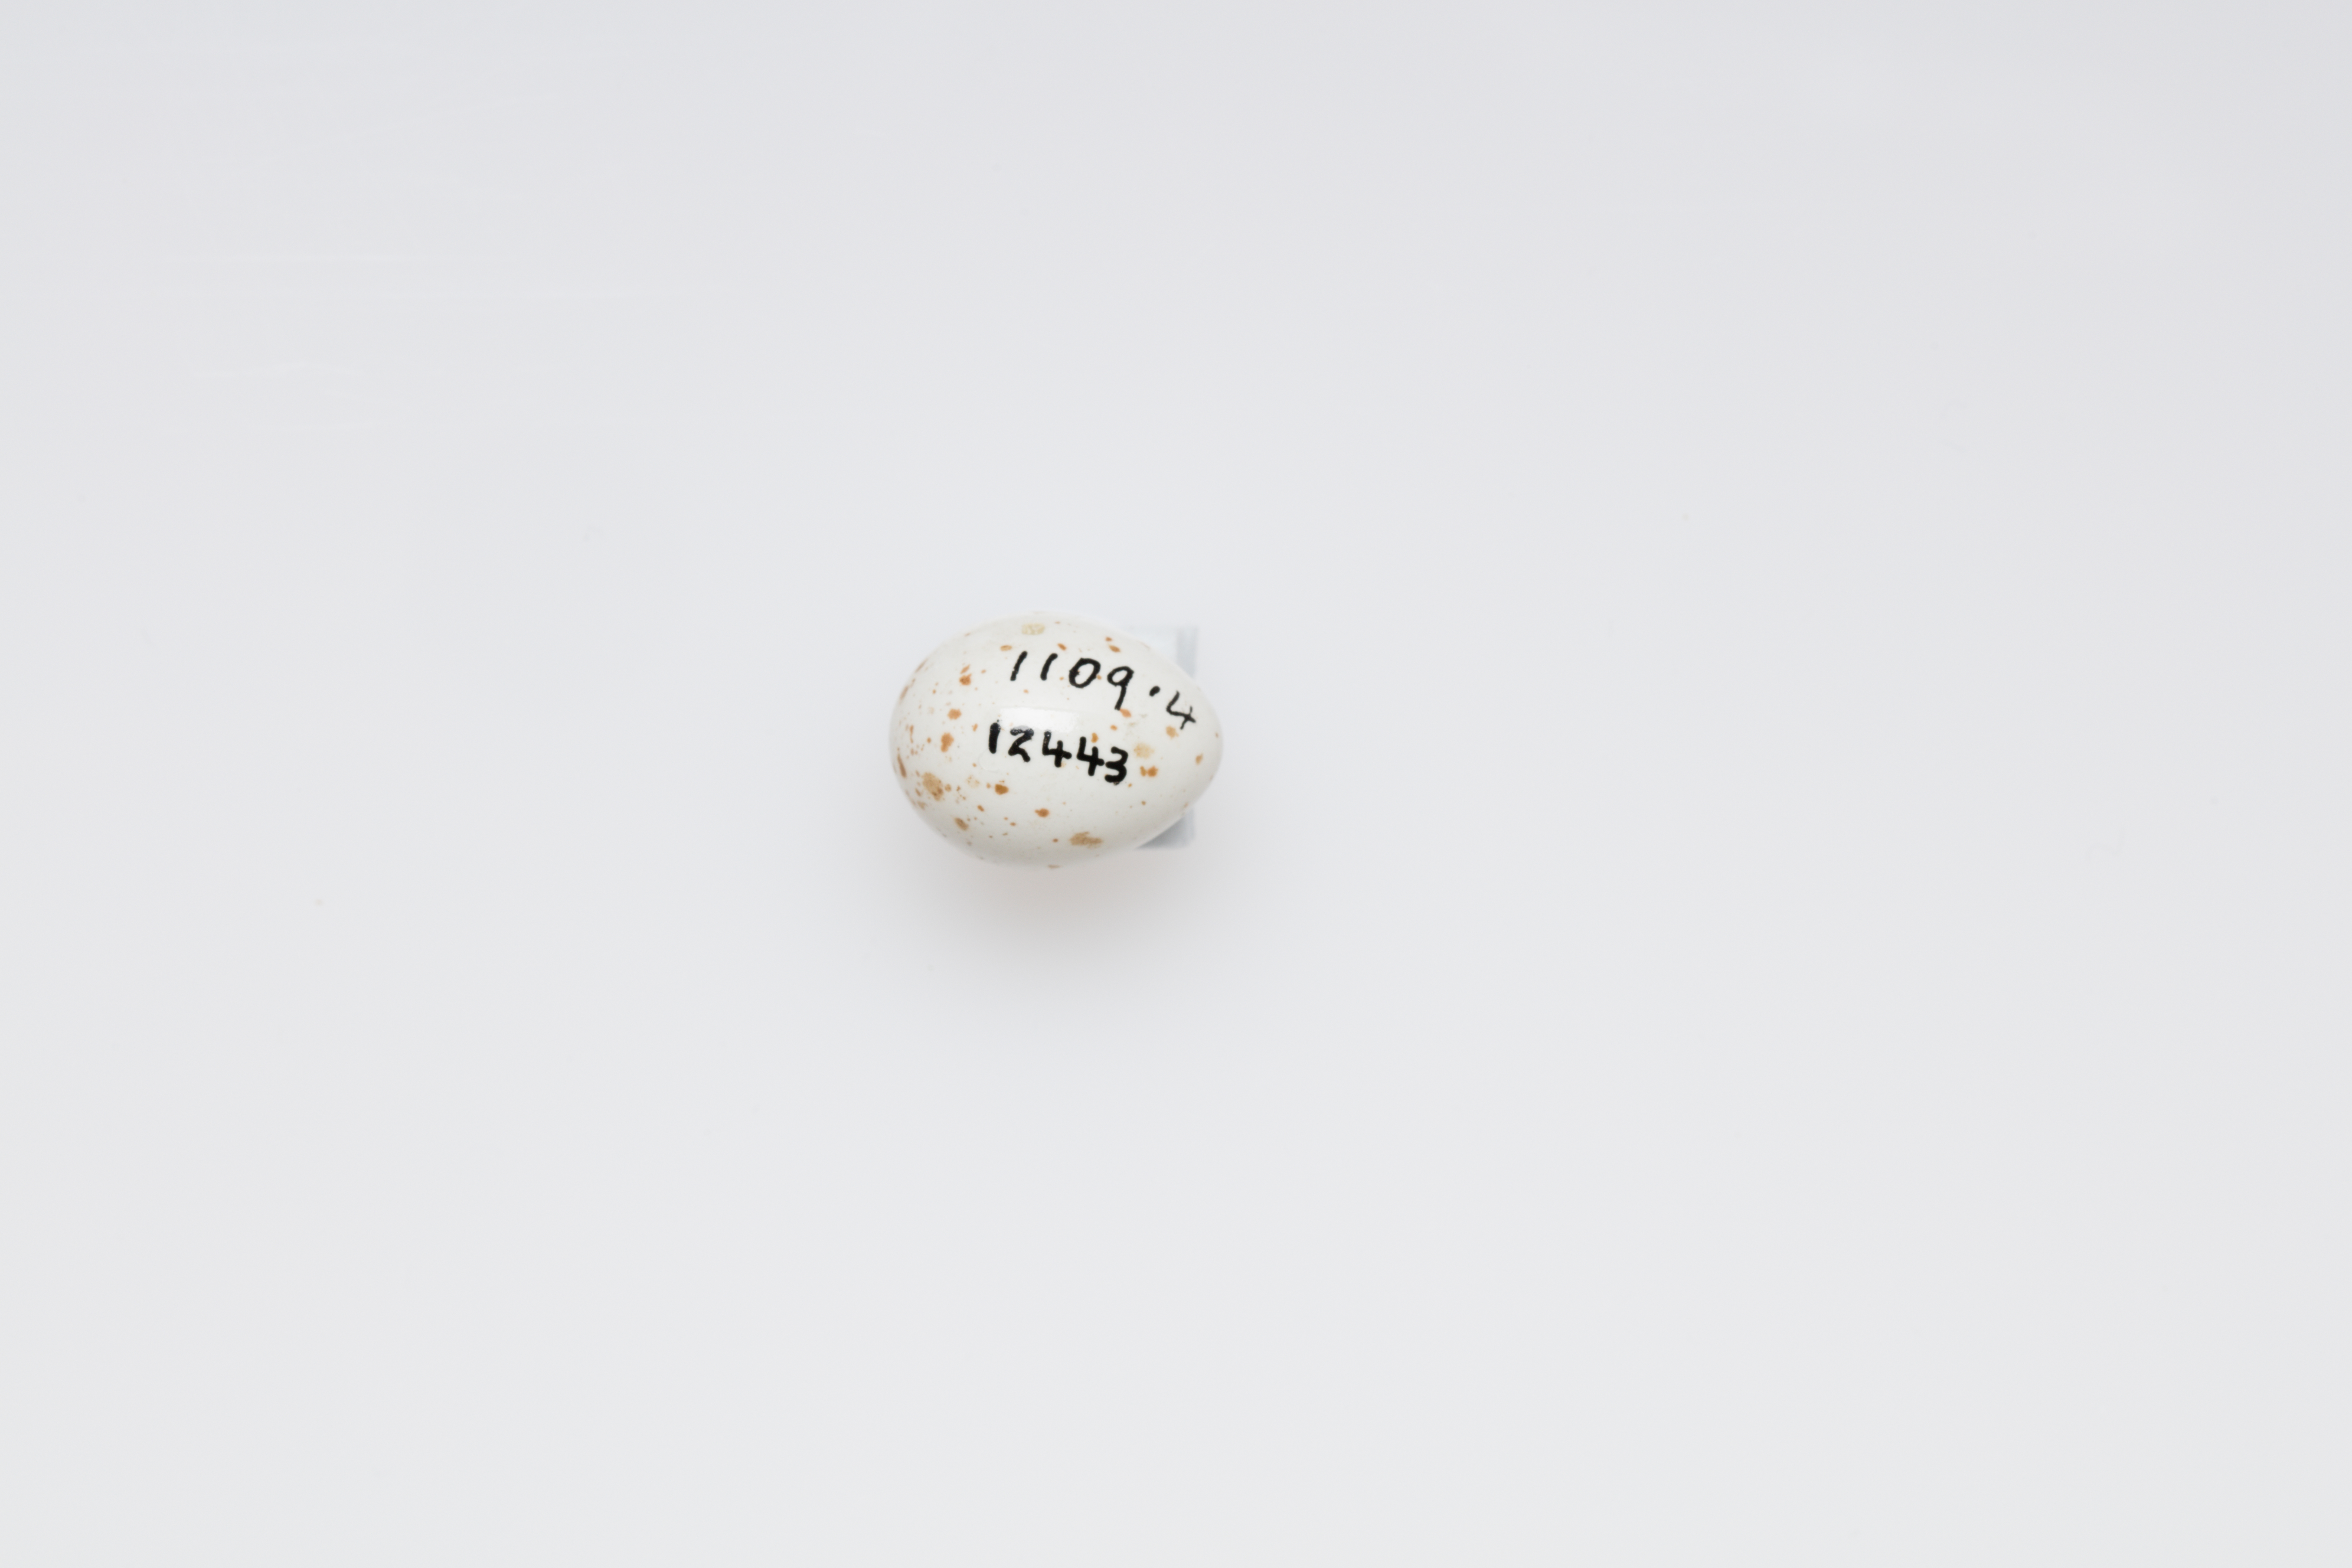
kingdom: Animalia
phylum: Chordata
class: Aves
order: Passeriformes
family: Aegithalidae
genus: Aegithalos
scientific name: Aegithalos caudatus
